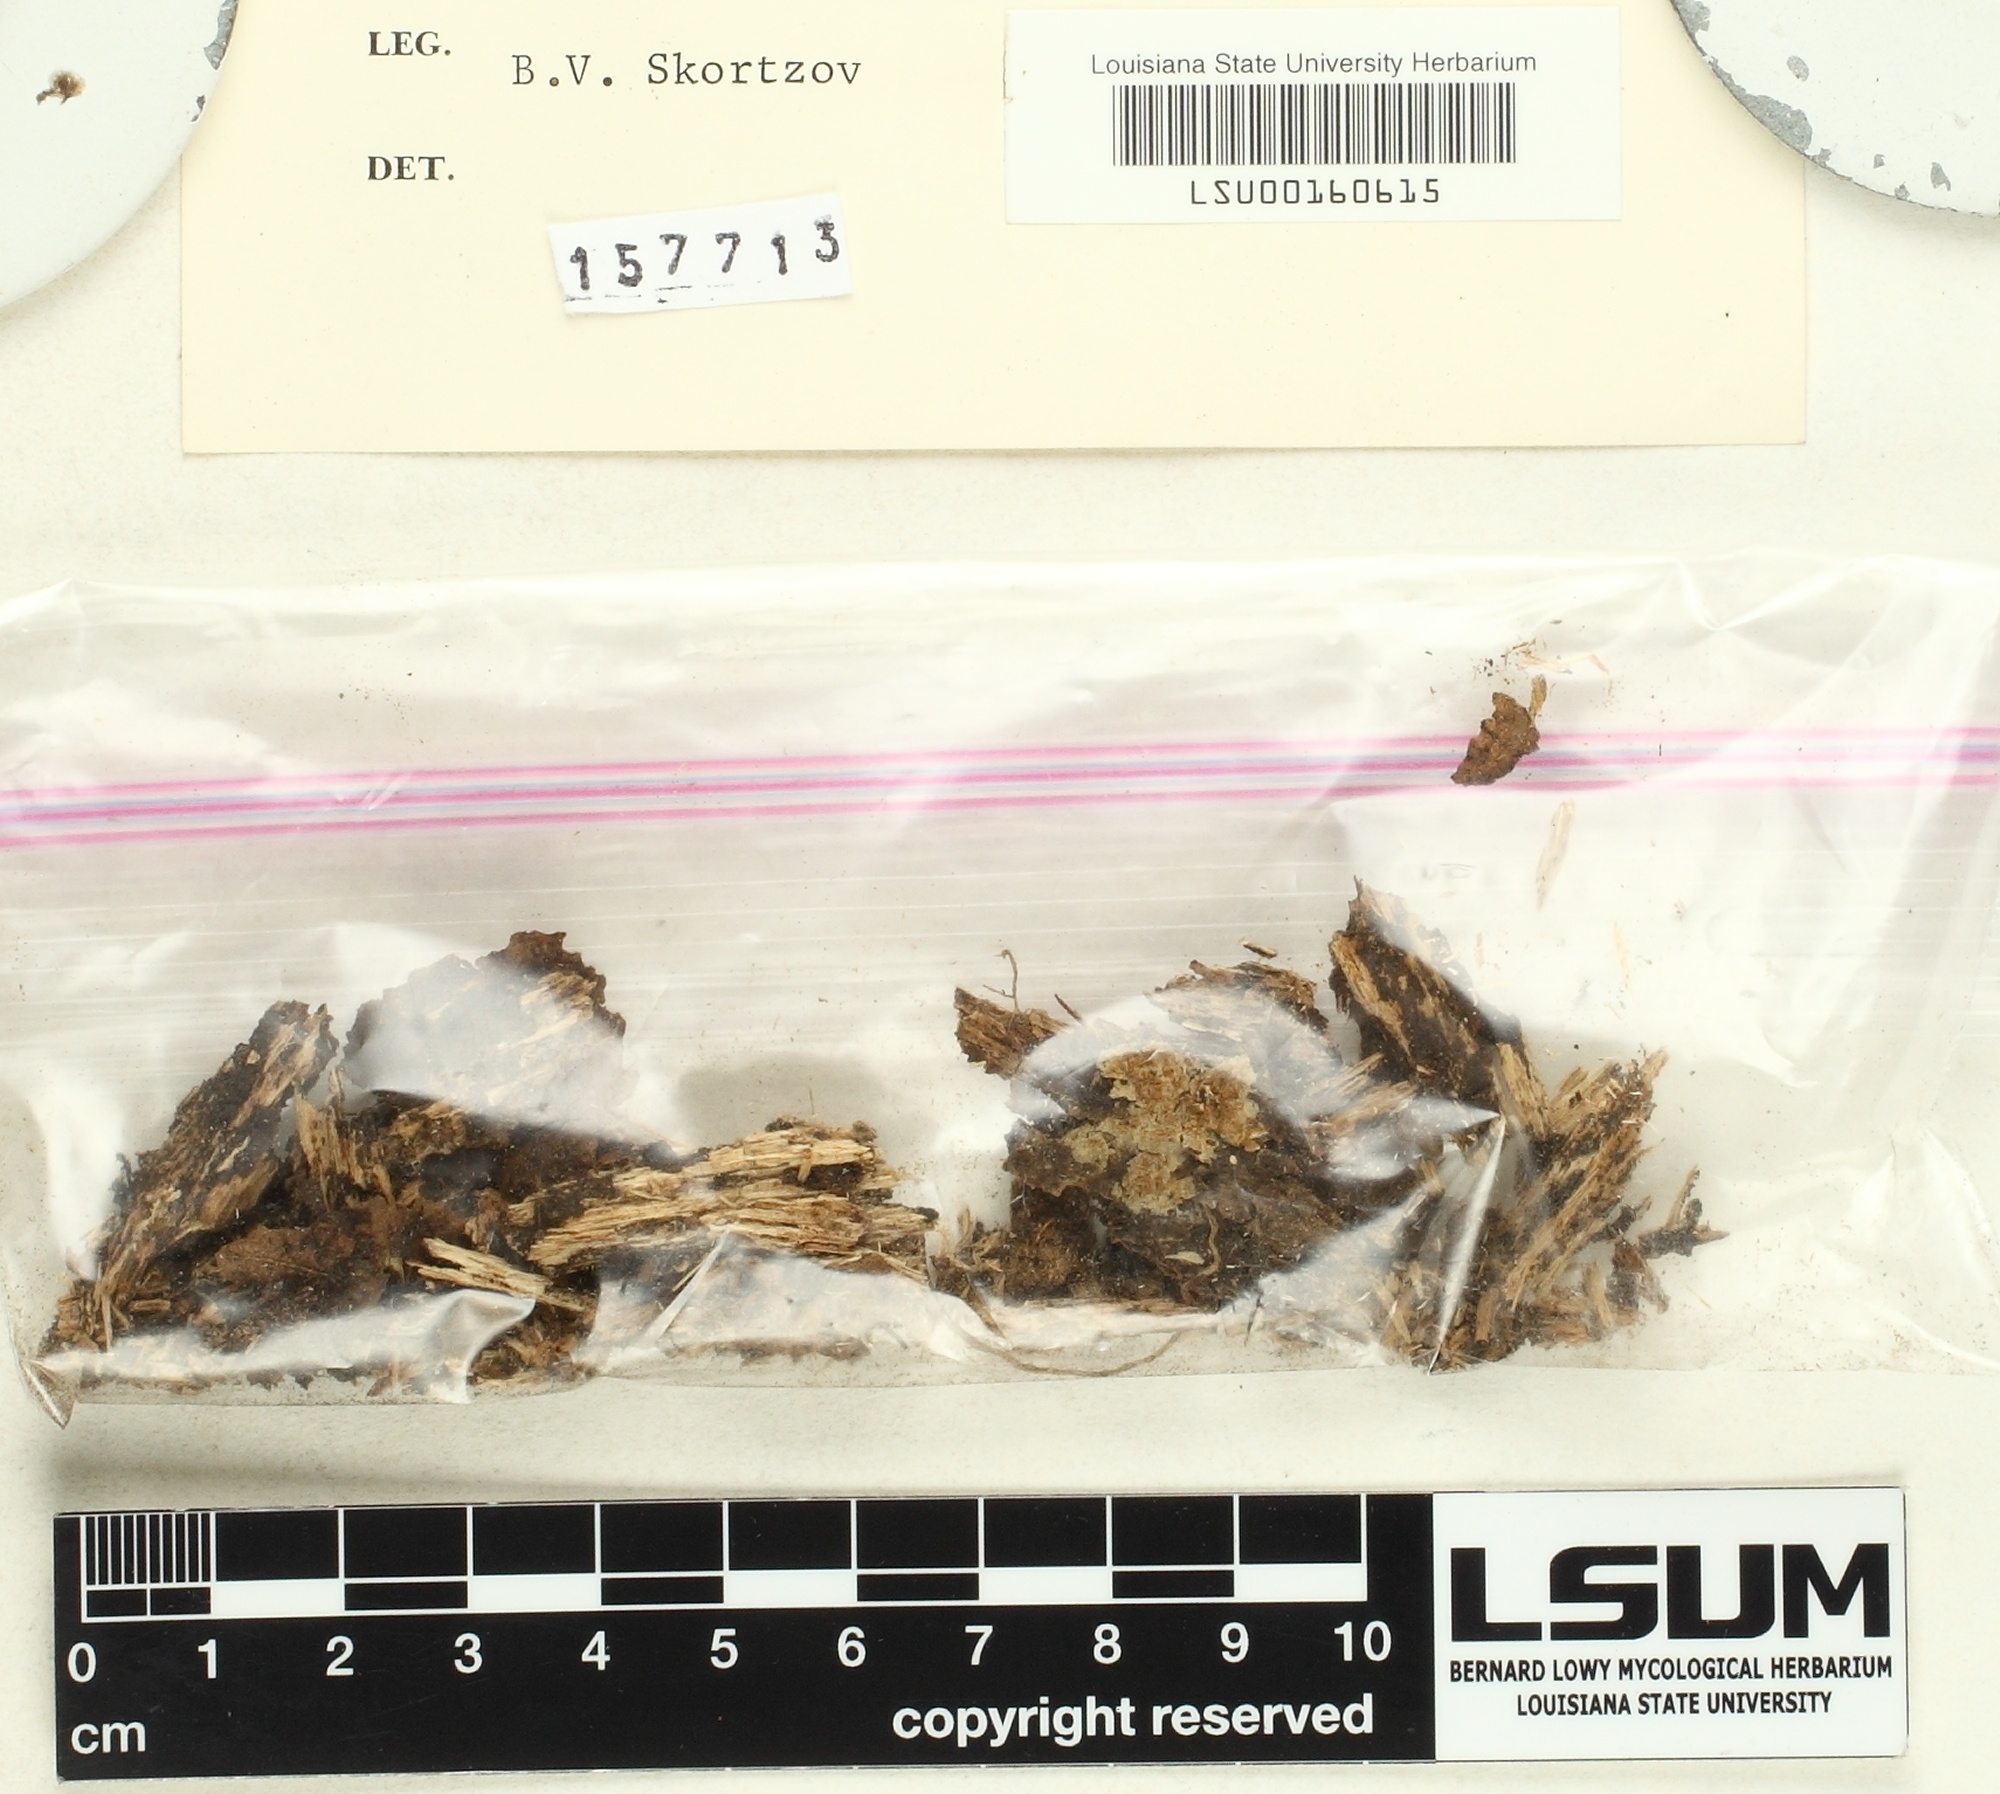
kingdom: Fungi
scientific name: Fungi
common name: Fungi
